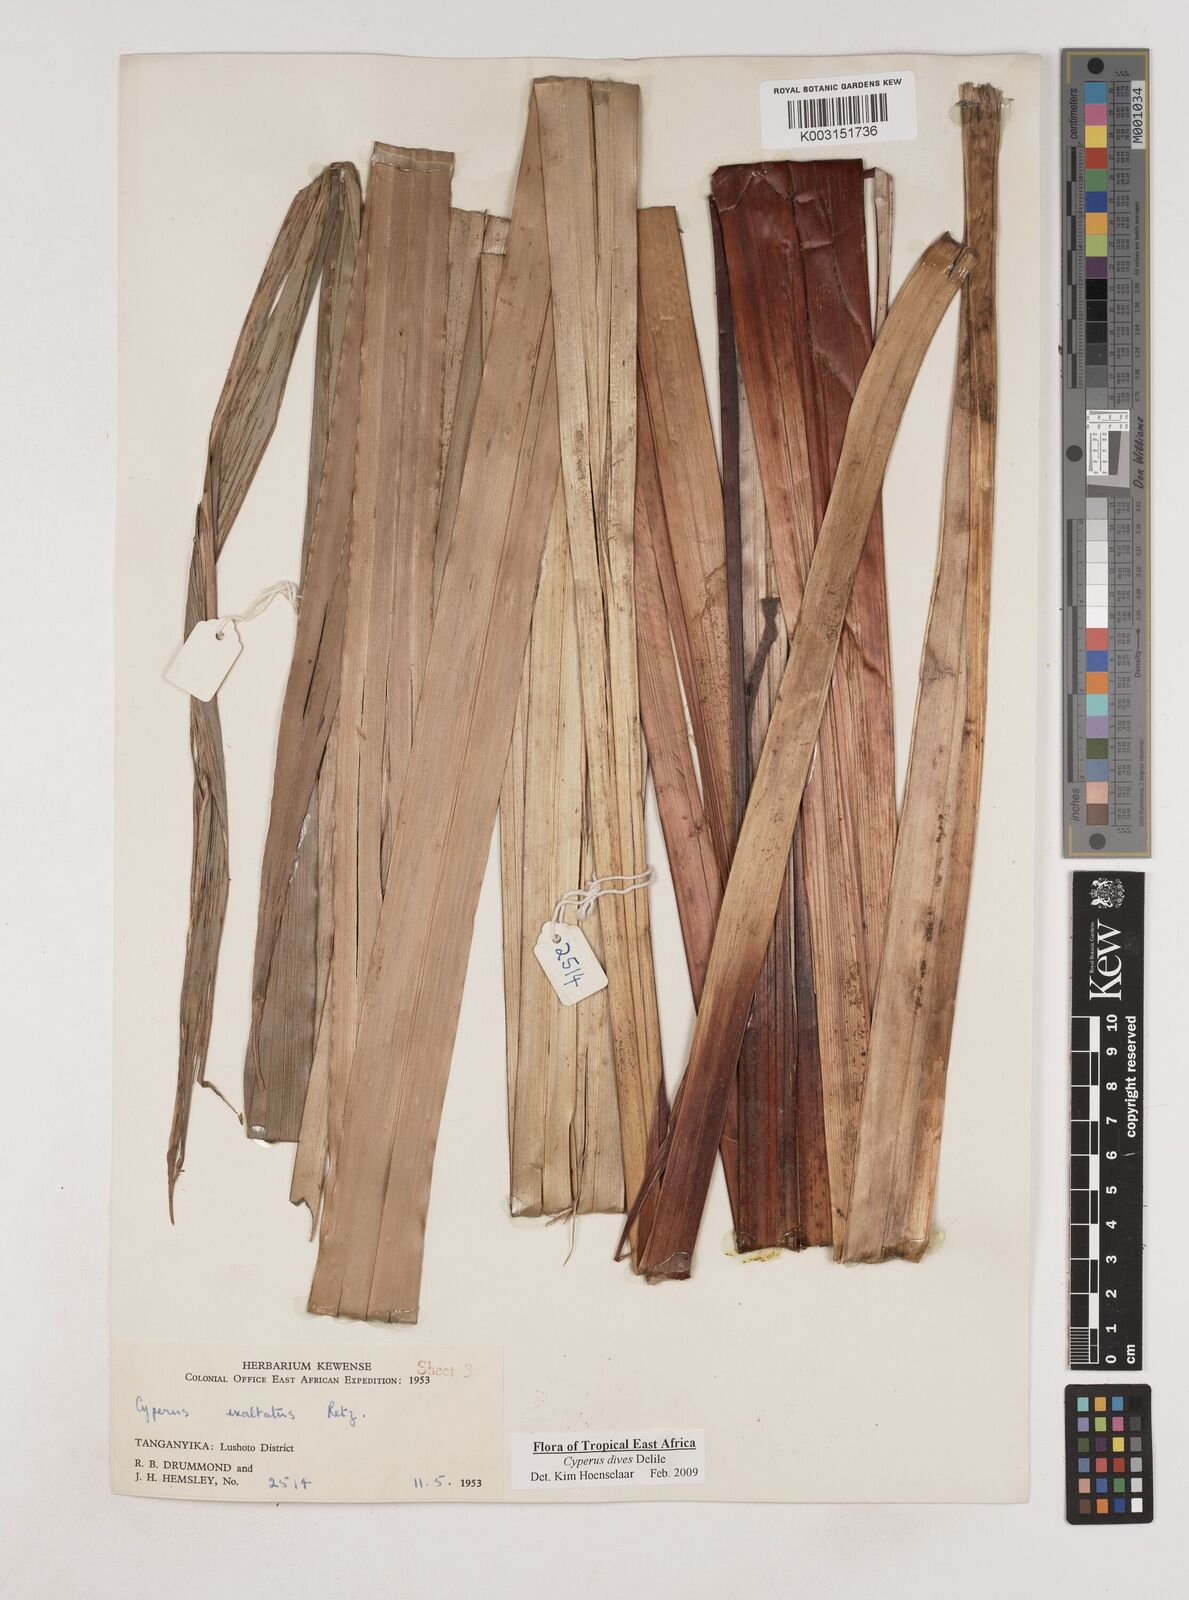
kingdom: Plantae
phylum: Tracheophyta
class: Liliopsida
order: Poales
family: Cyperaceae
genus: Cyperus
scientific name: Cyperus dives
